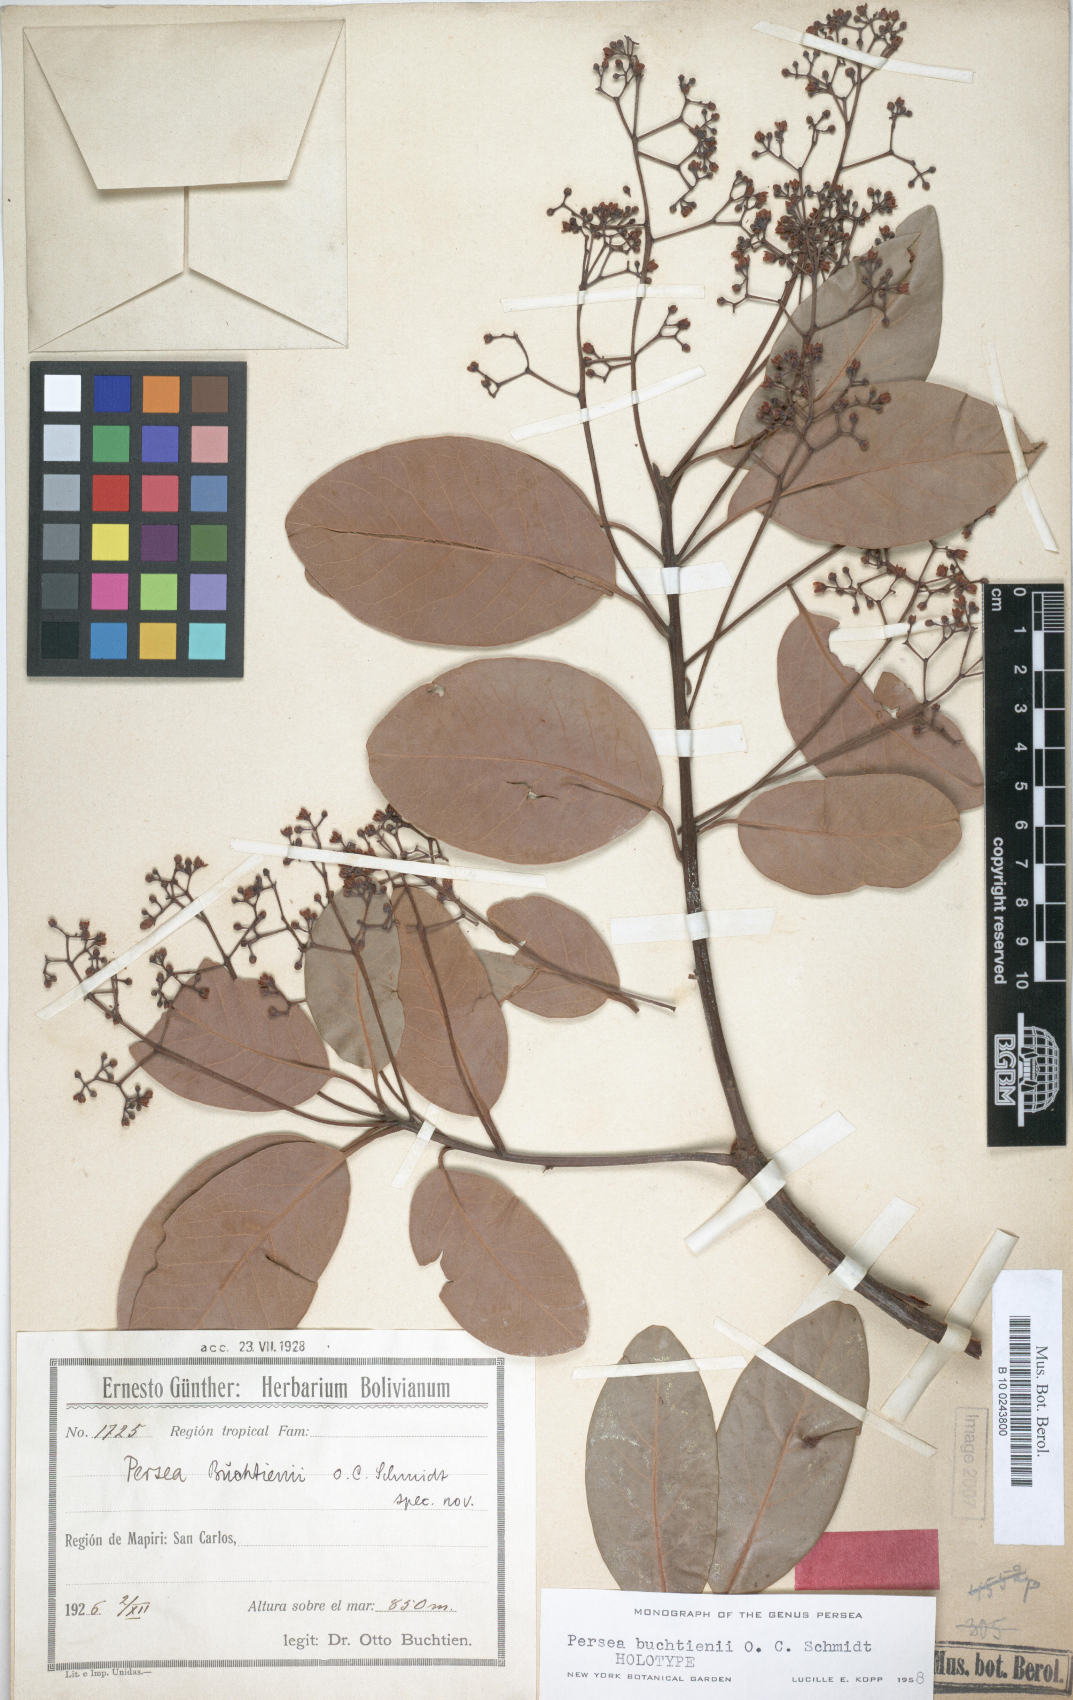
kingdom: Plantae
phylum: Tracheophyta
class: Magnoliopsida
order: Laurales
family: Lauraceae
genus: Persea
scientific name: Persea buchtienii
